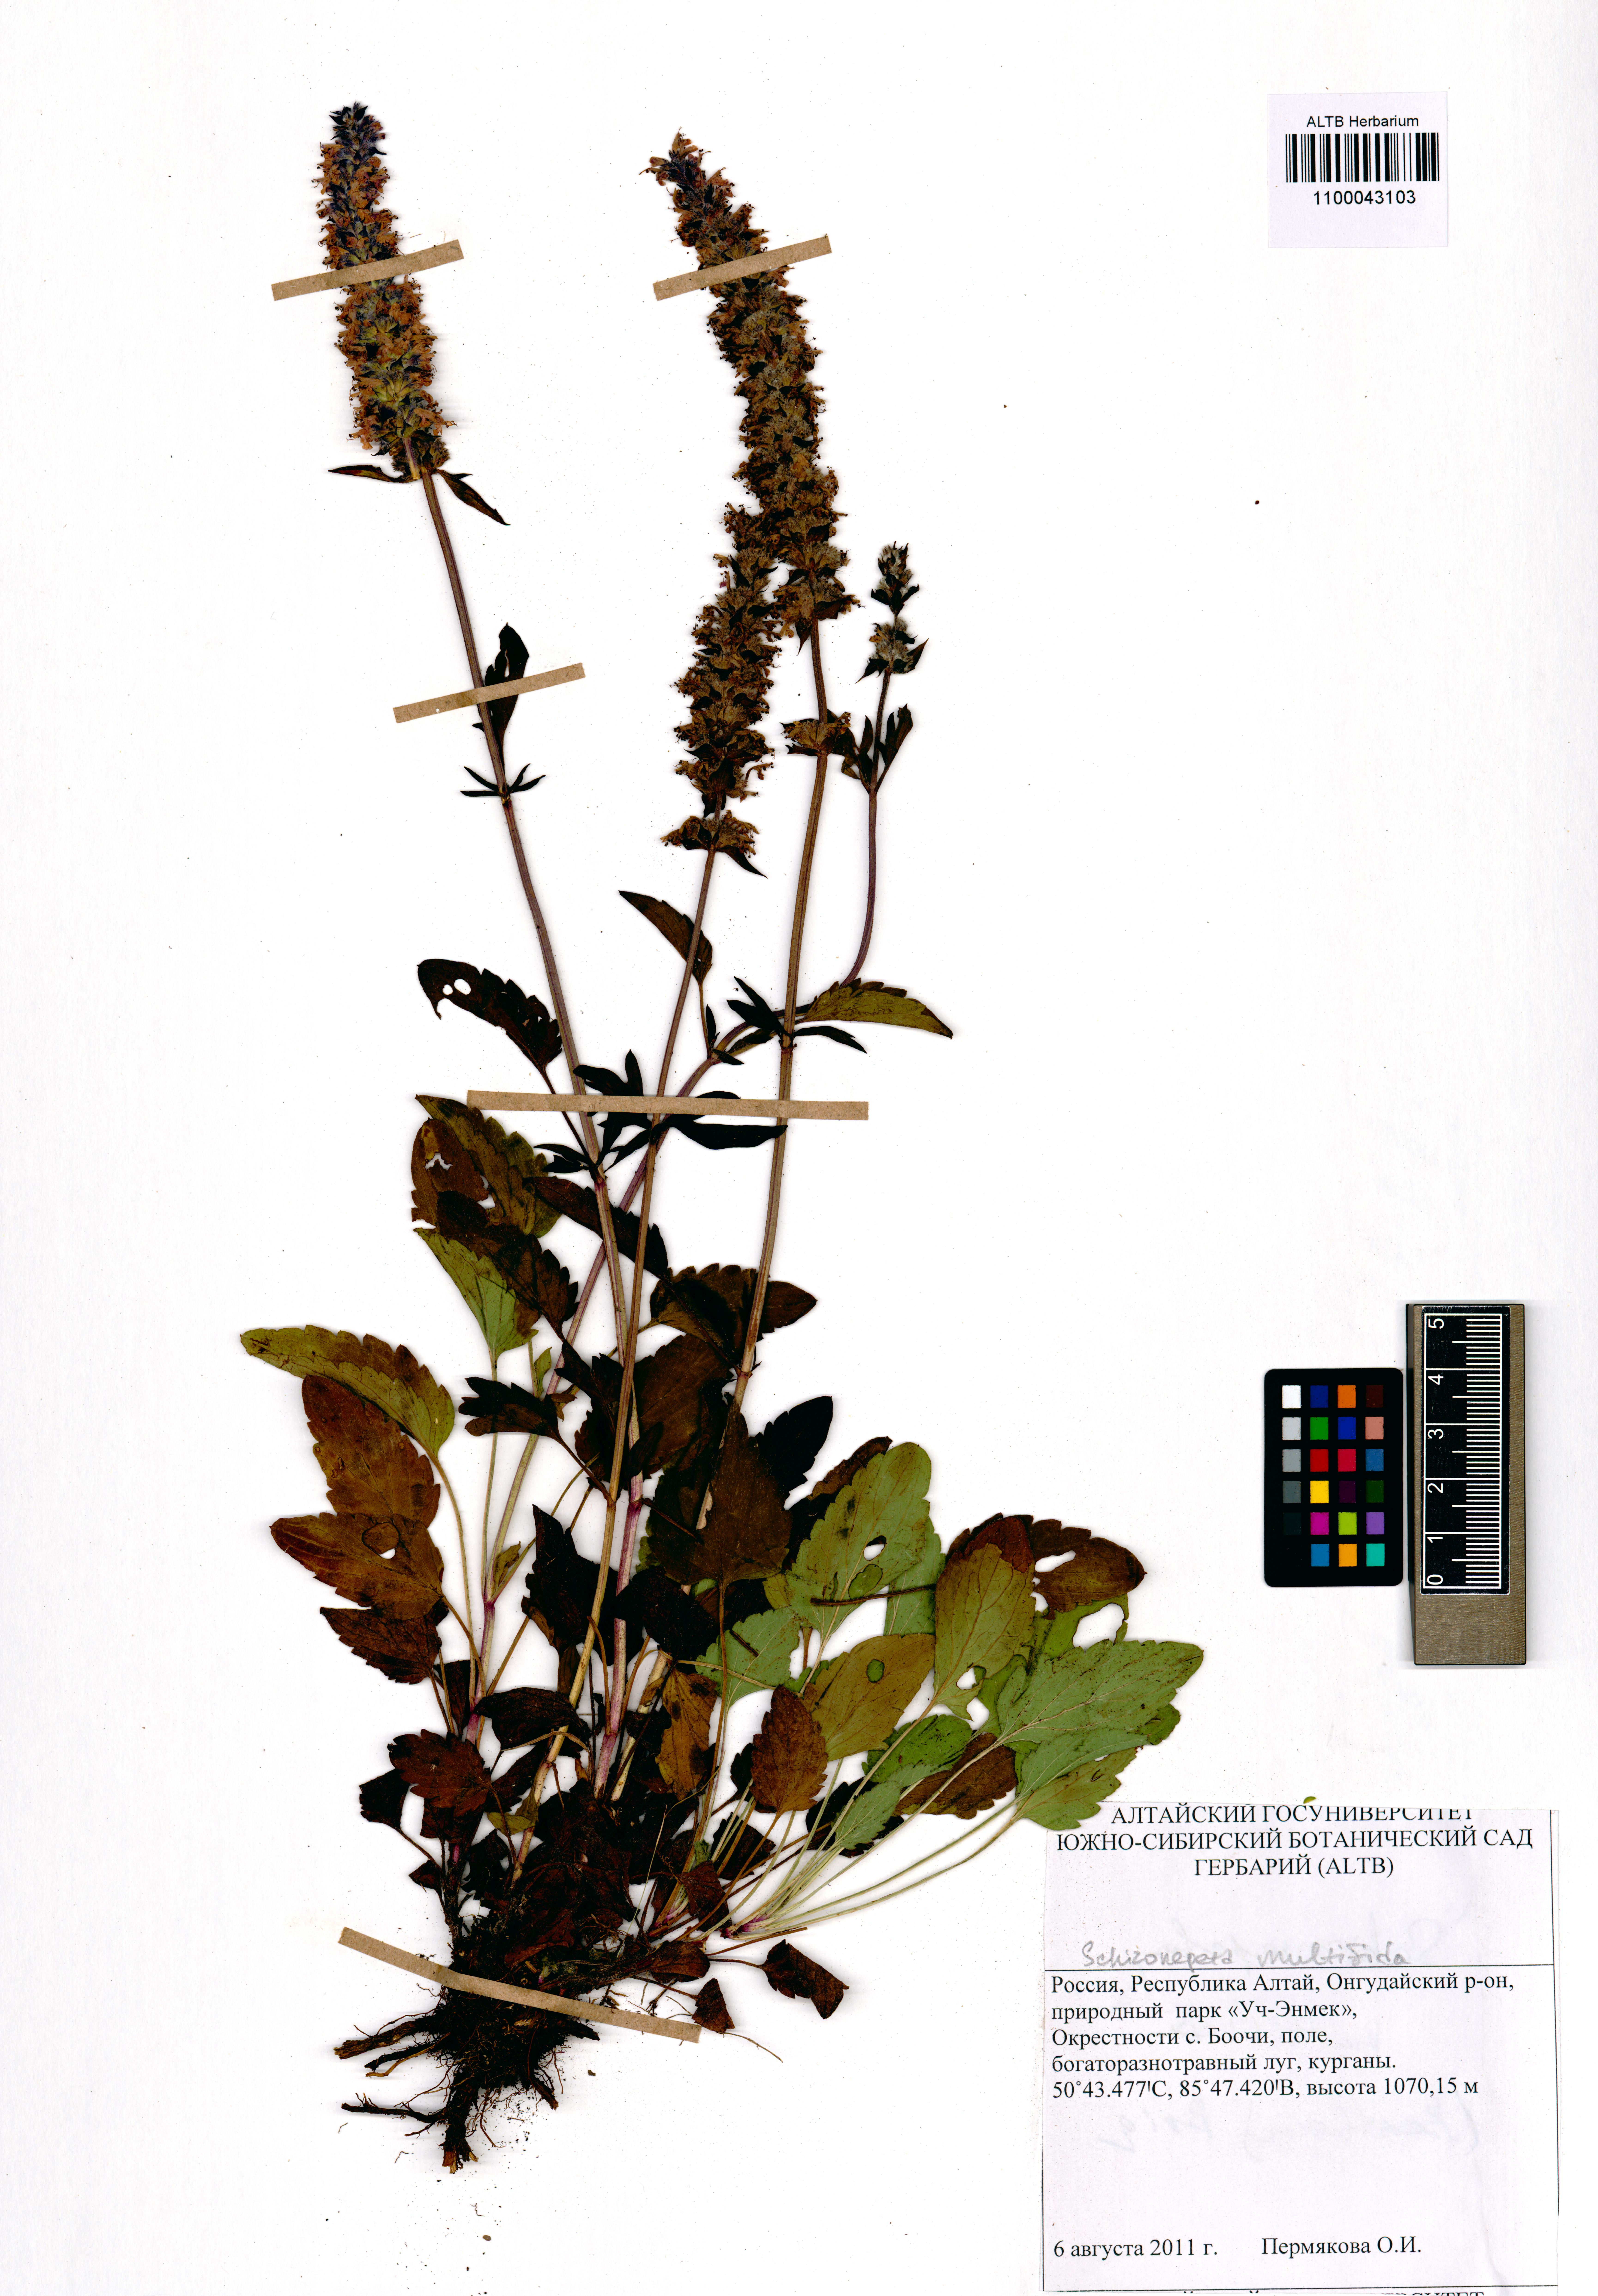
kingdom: Plantae
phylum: Tracheophyta
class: Magnoliopsida
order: Lamiales
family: Lamiaceae
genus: Nepeta
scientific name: Nepeta multifida
